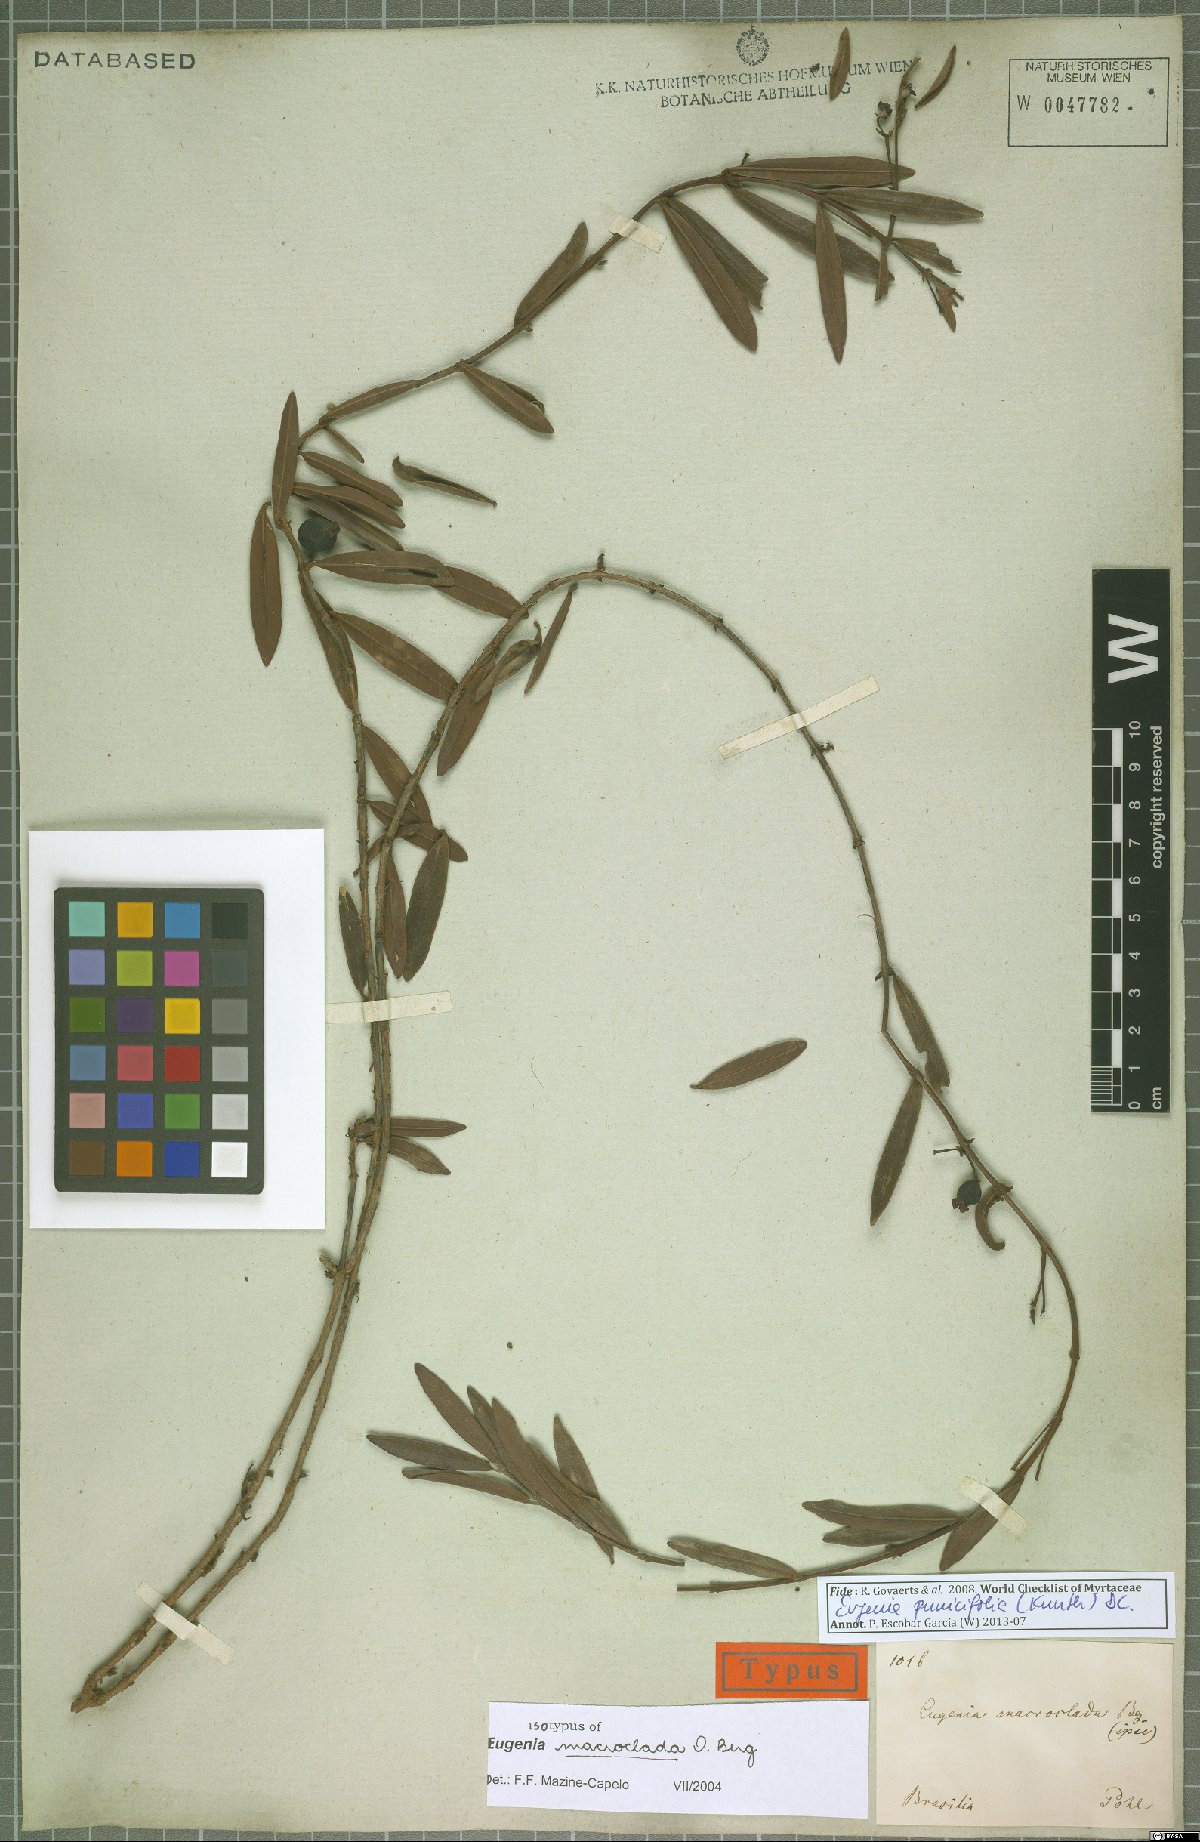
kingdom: Plantae
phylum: Tracheophyta
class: Magnoliopsida
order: Myrtales
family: Myrtaceae
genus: Eugenia
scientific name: Eugenia punicifolia
